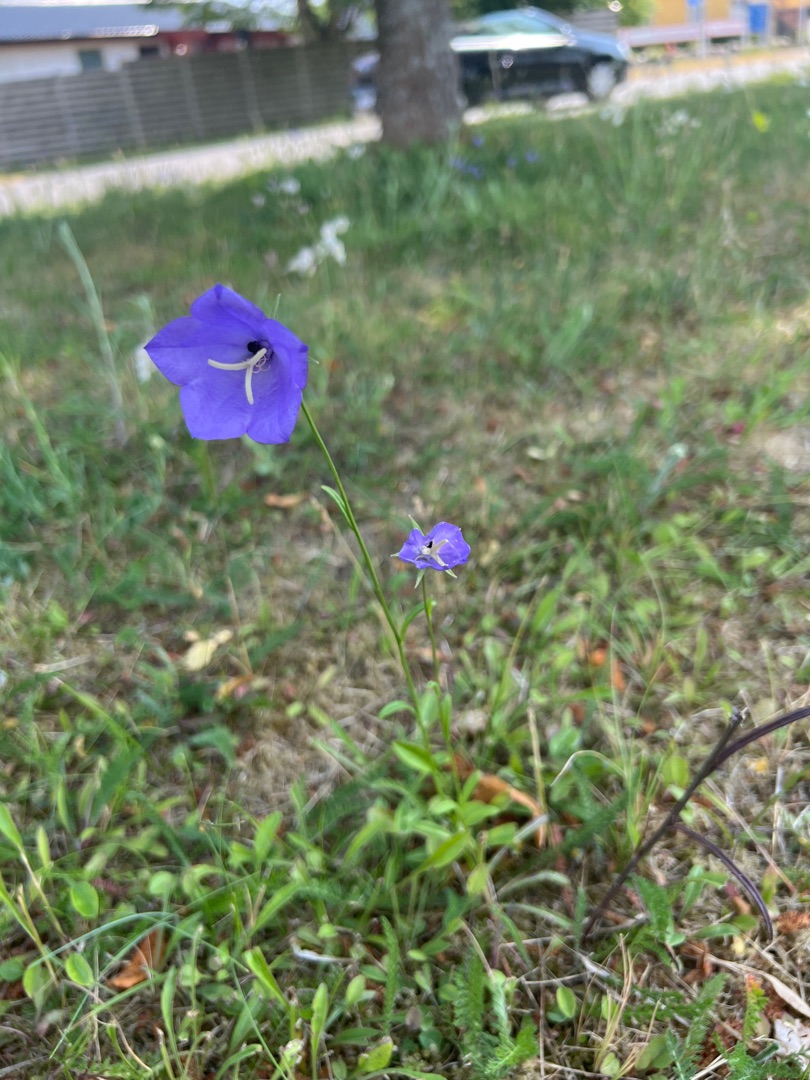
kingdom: Plantae
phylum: Tracheophyta
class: Magnoliopsida
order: Asterales
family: Campanulaceae
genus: Campanula
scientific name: Campanula persicifolia
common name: Smalbladet klokke
